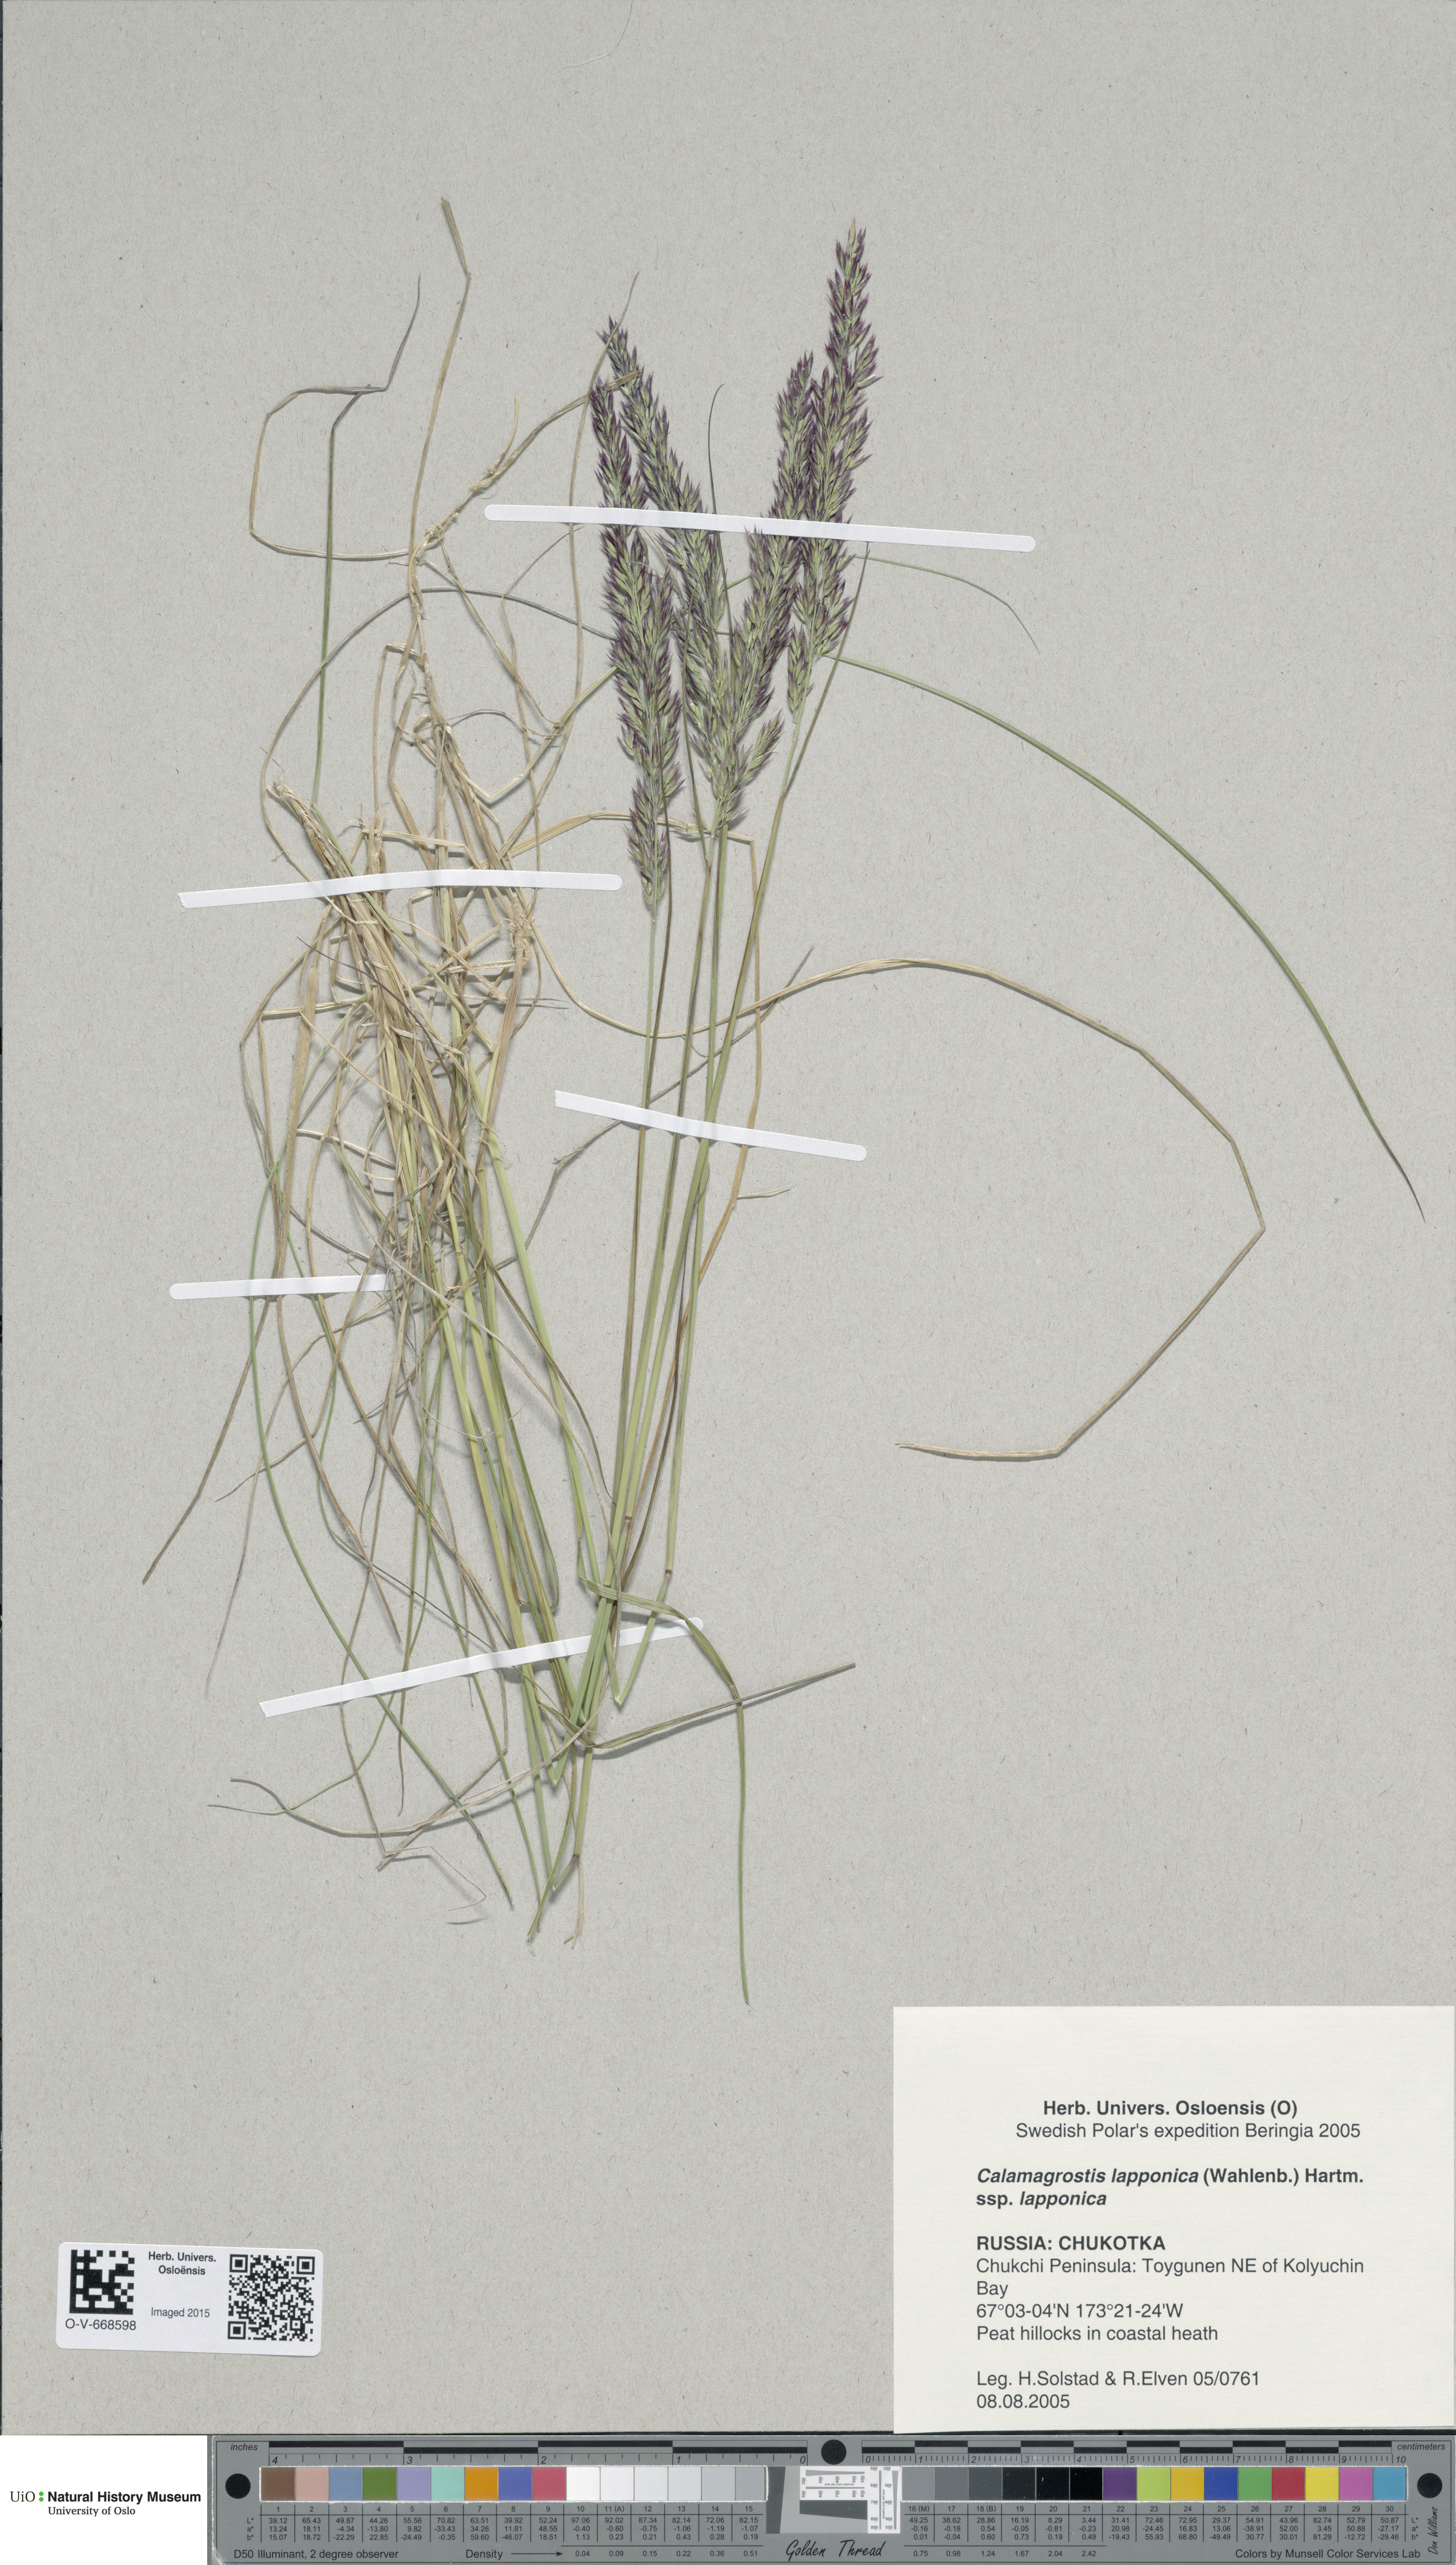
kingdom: Plantae
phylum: Tracheophyta
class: Liliopsida
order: Poales
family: Poaceae
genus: Calamagrostis
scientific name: Calamagrostis lapponica
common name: Lapland reedgrass
